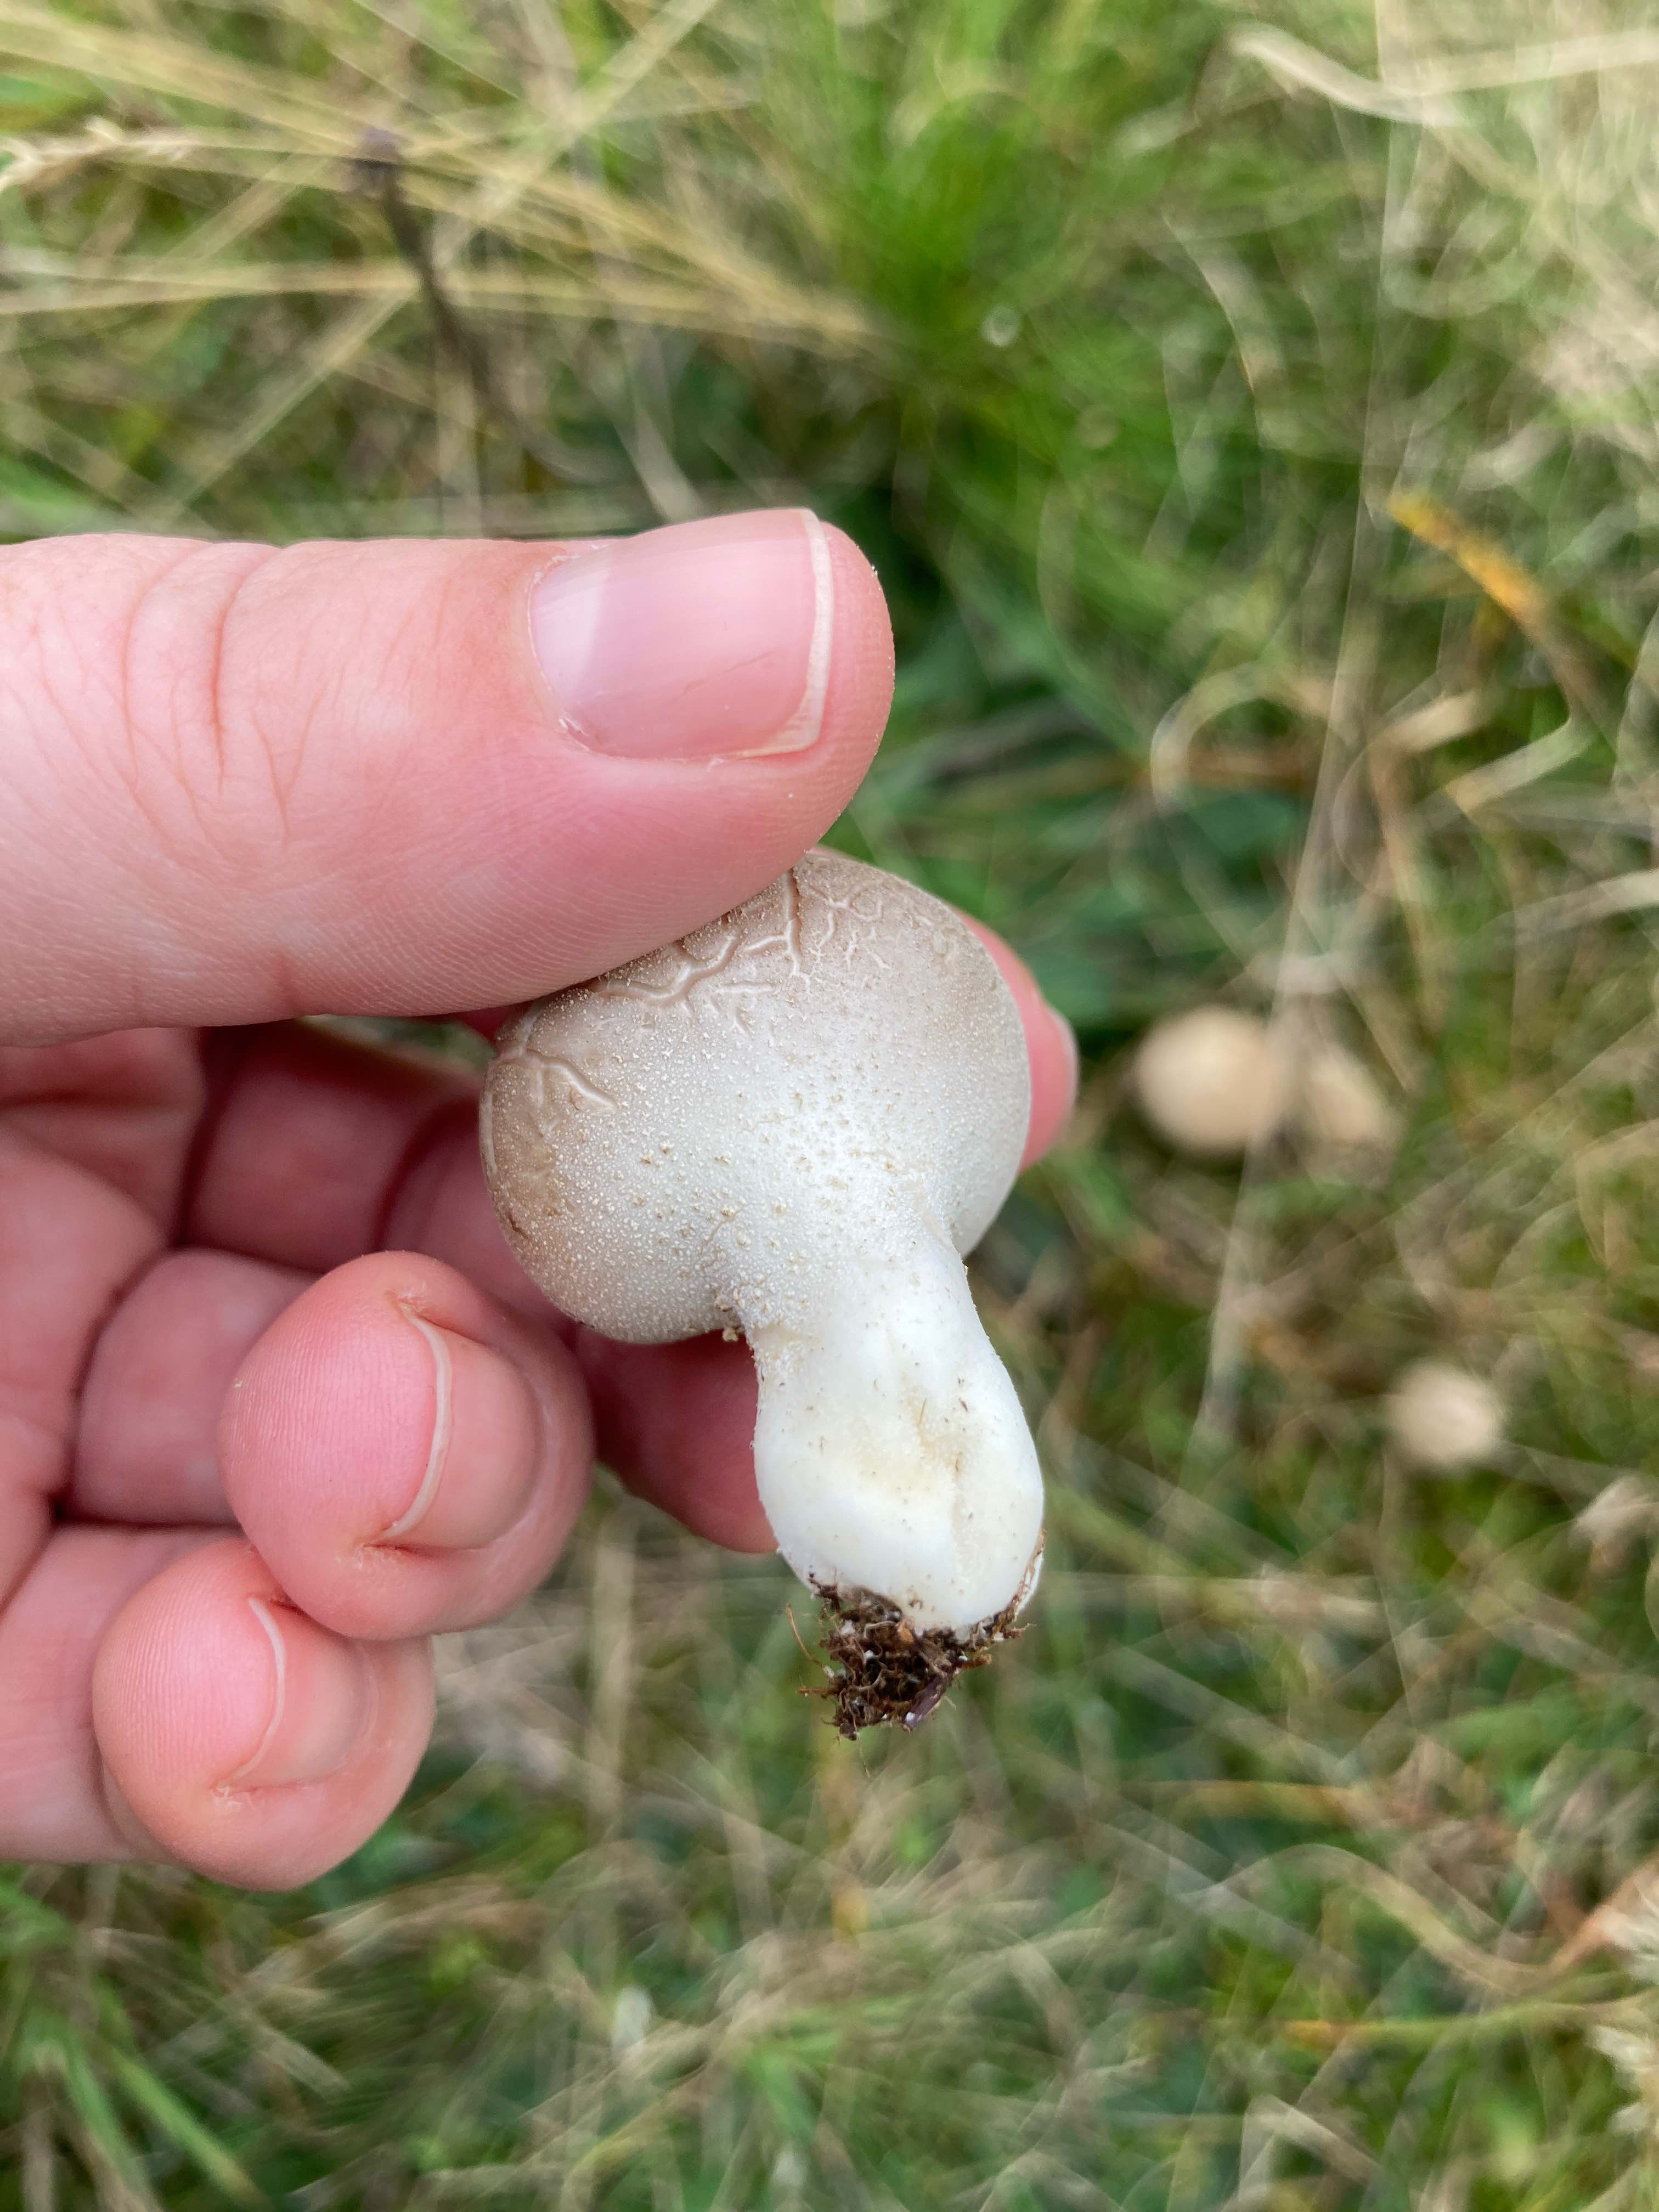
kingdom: Fungi
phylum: Basidiomycota
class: Agaricomycetes
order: Agaricales
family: Lycoperdaceae
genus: Lycoperdon
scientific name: Lycoperdon lividum
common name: mark-støvbold
